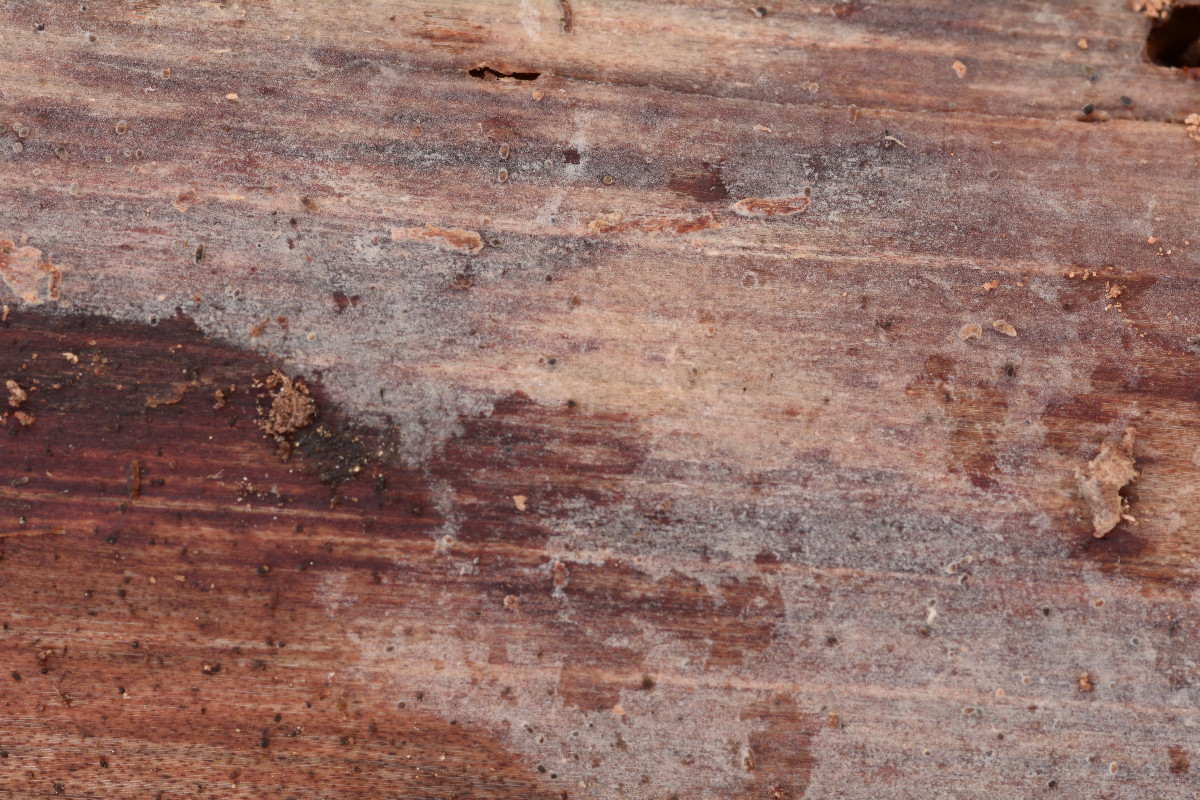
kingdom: Fungi
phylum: Basidiomycota
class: Agaricomycetes
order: Agaricales
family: Radulomycetaceae
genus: Aphanobasidium
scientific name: Aphanobasidium pseudotsugae
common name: tynd naftalinskind
